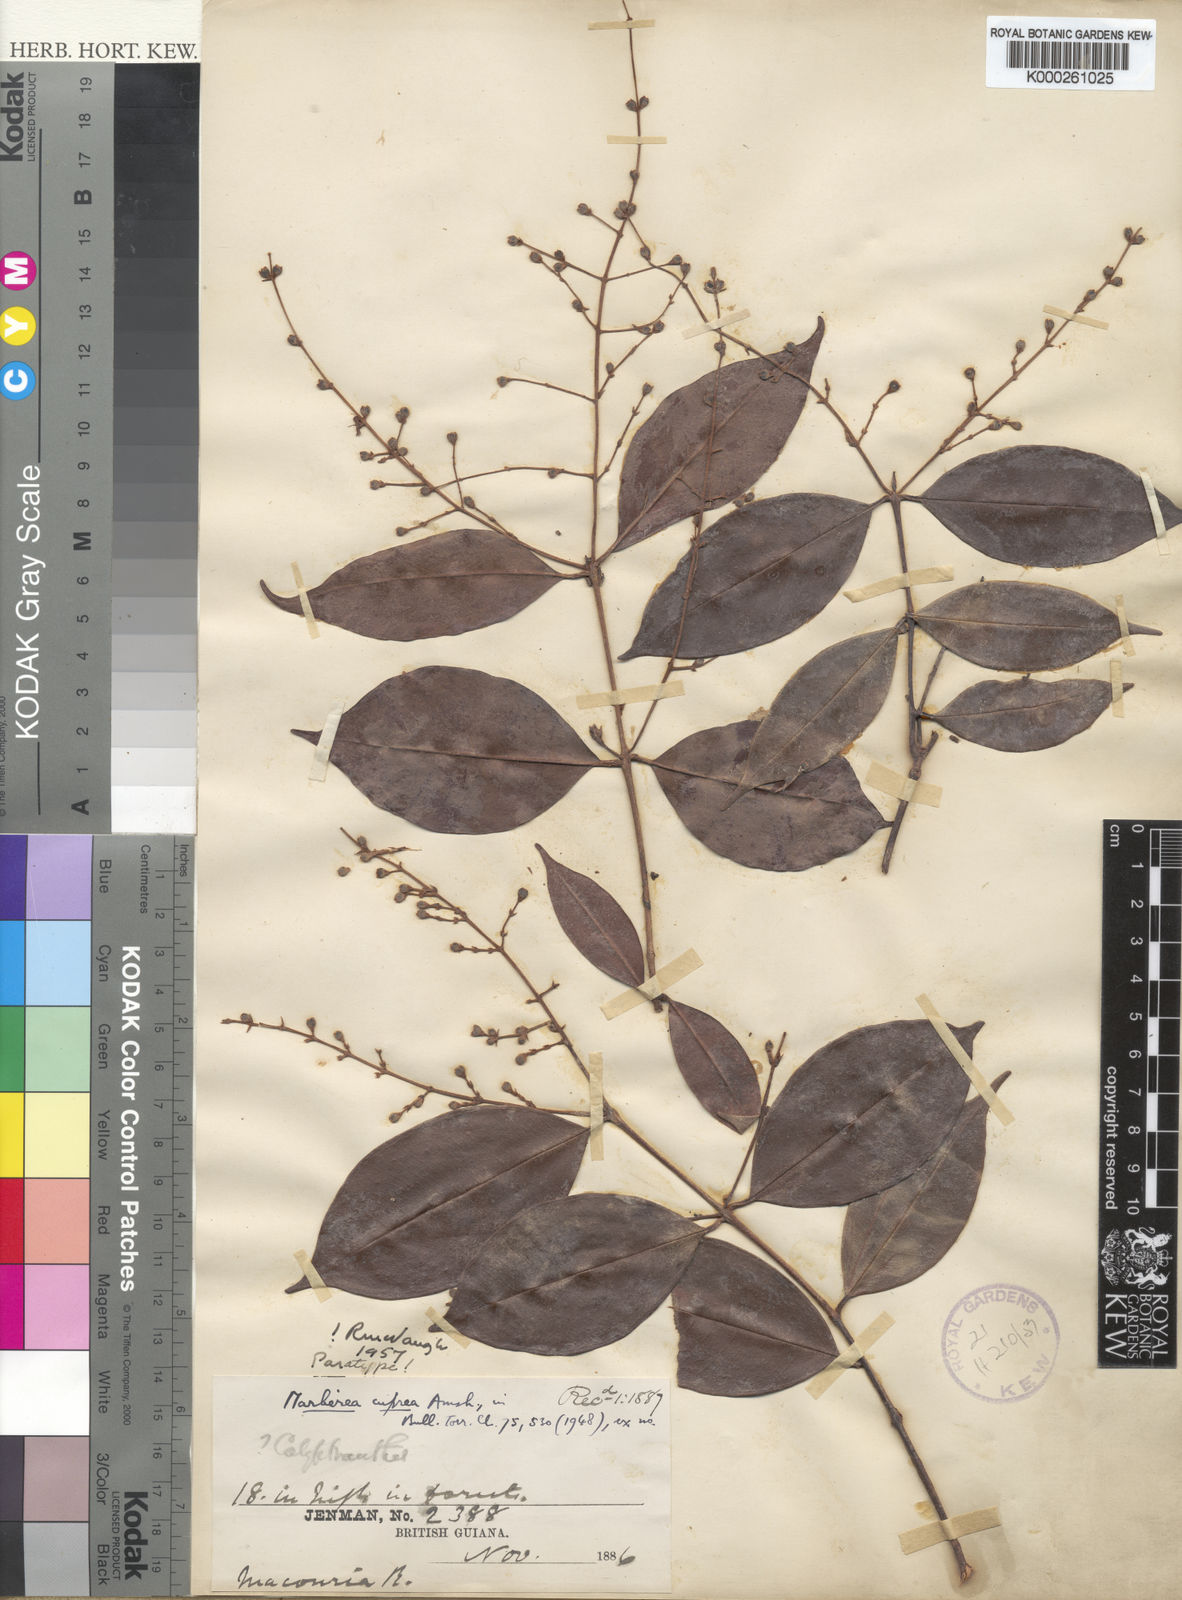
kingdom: Plantae
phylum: Tracheophyta
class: Magnoliopsida
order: Myrtales
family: Myrtaceae
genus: Myrcia
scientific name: Myrcia neocuprea
